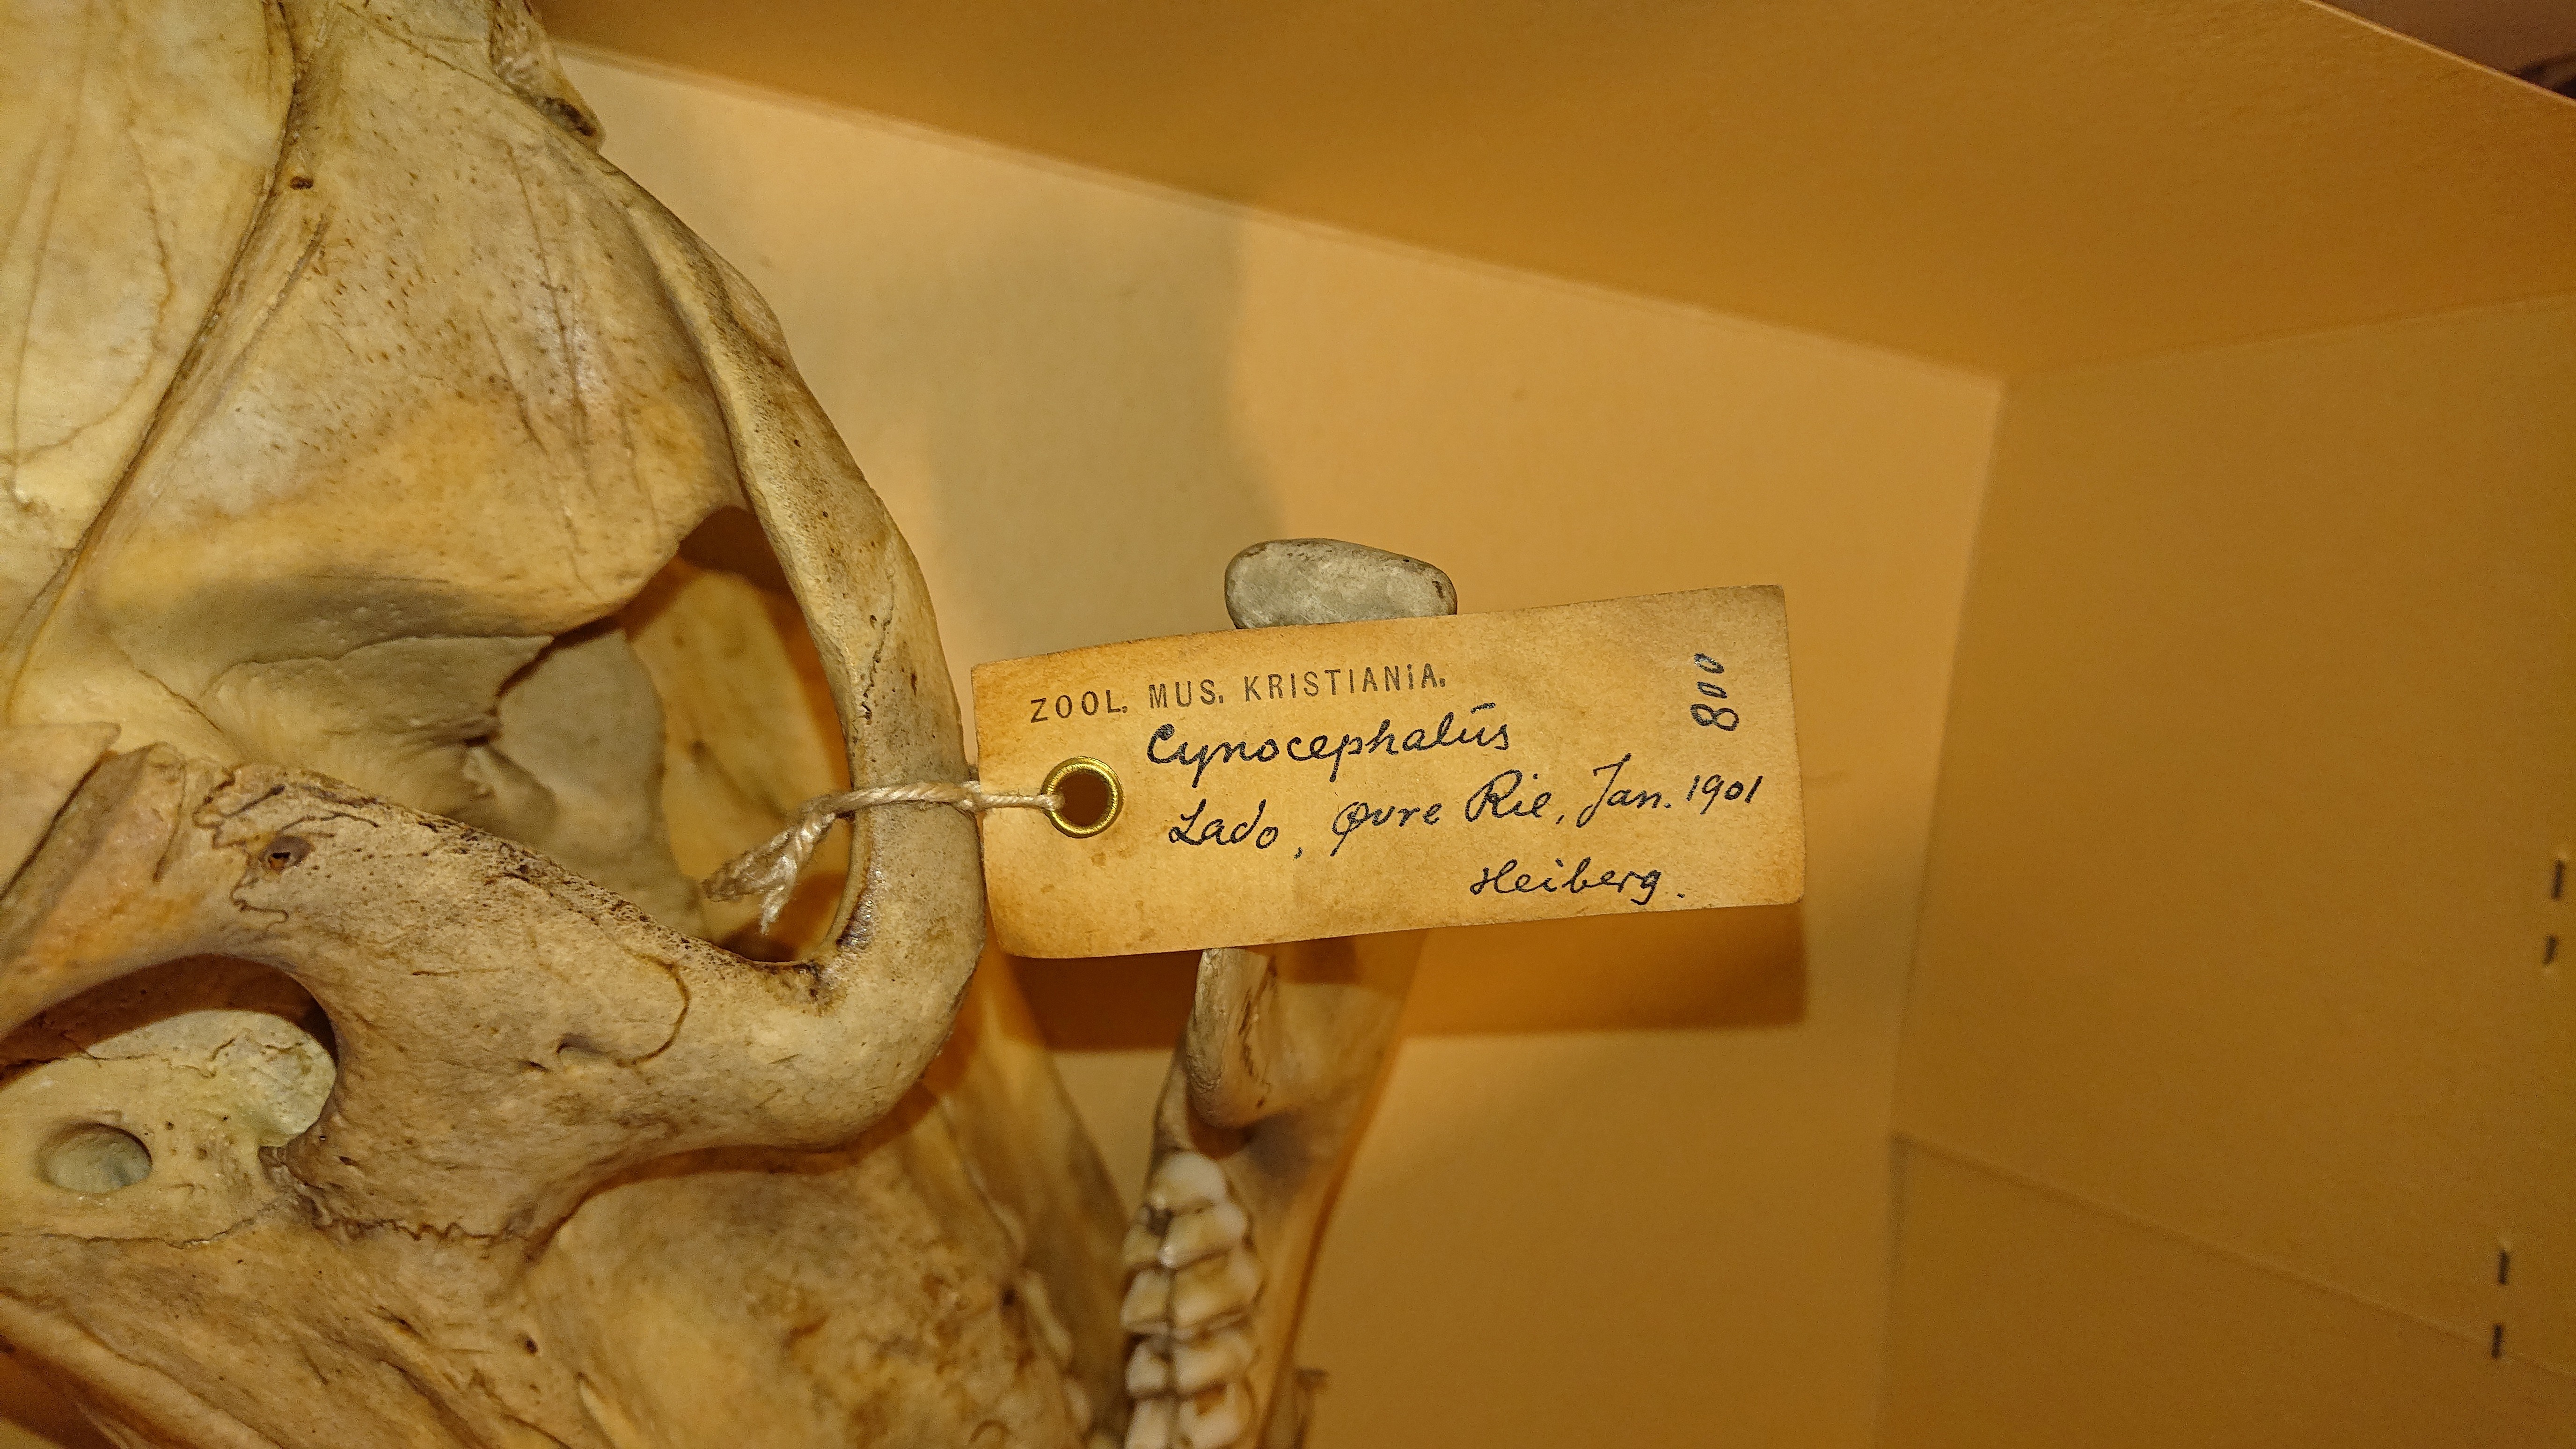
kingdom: Animalia
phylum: Chordata
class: Mammalia
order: Primates
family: Cercopithecidae
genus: Papio
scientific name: Papio cynocephalus
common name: Yellow baboon
